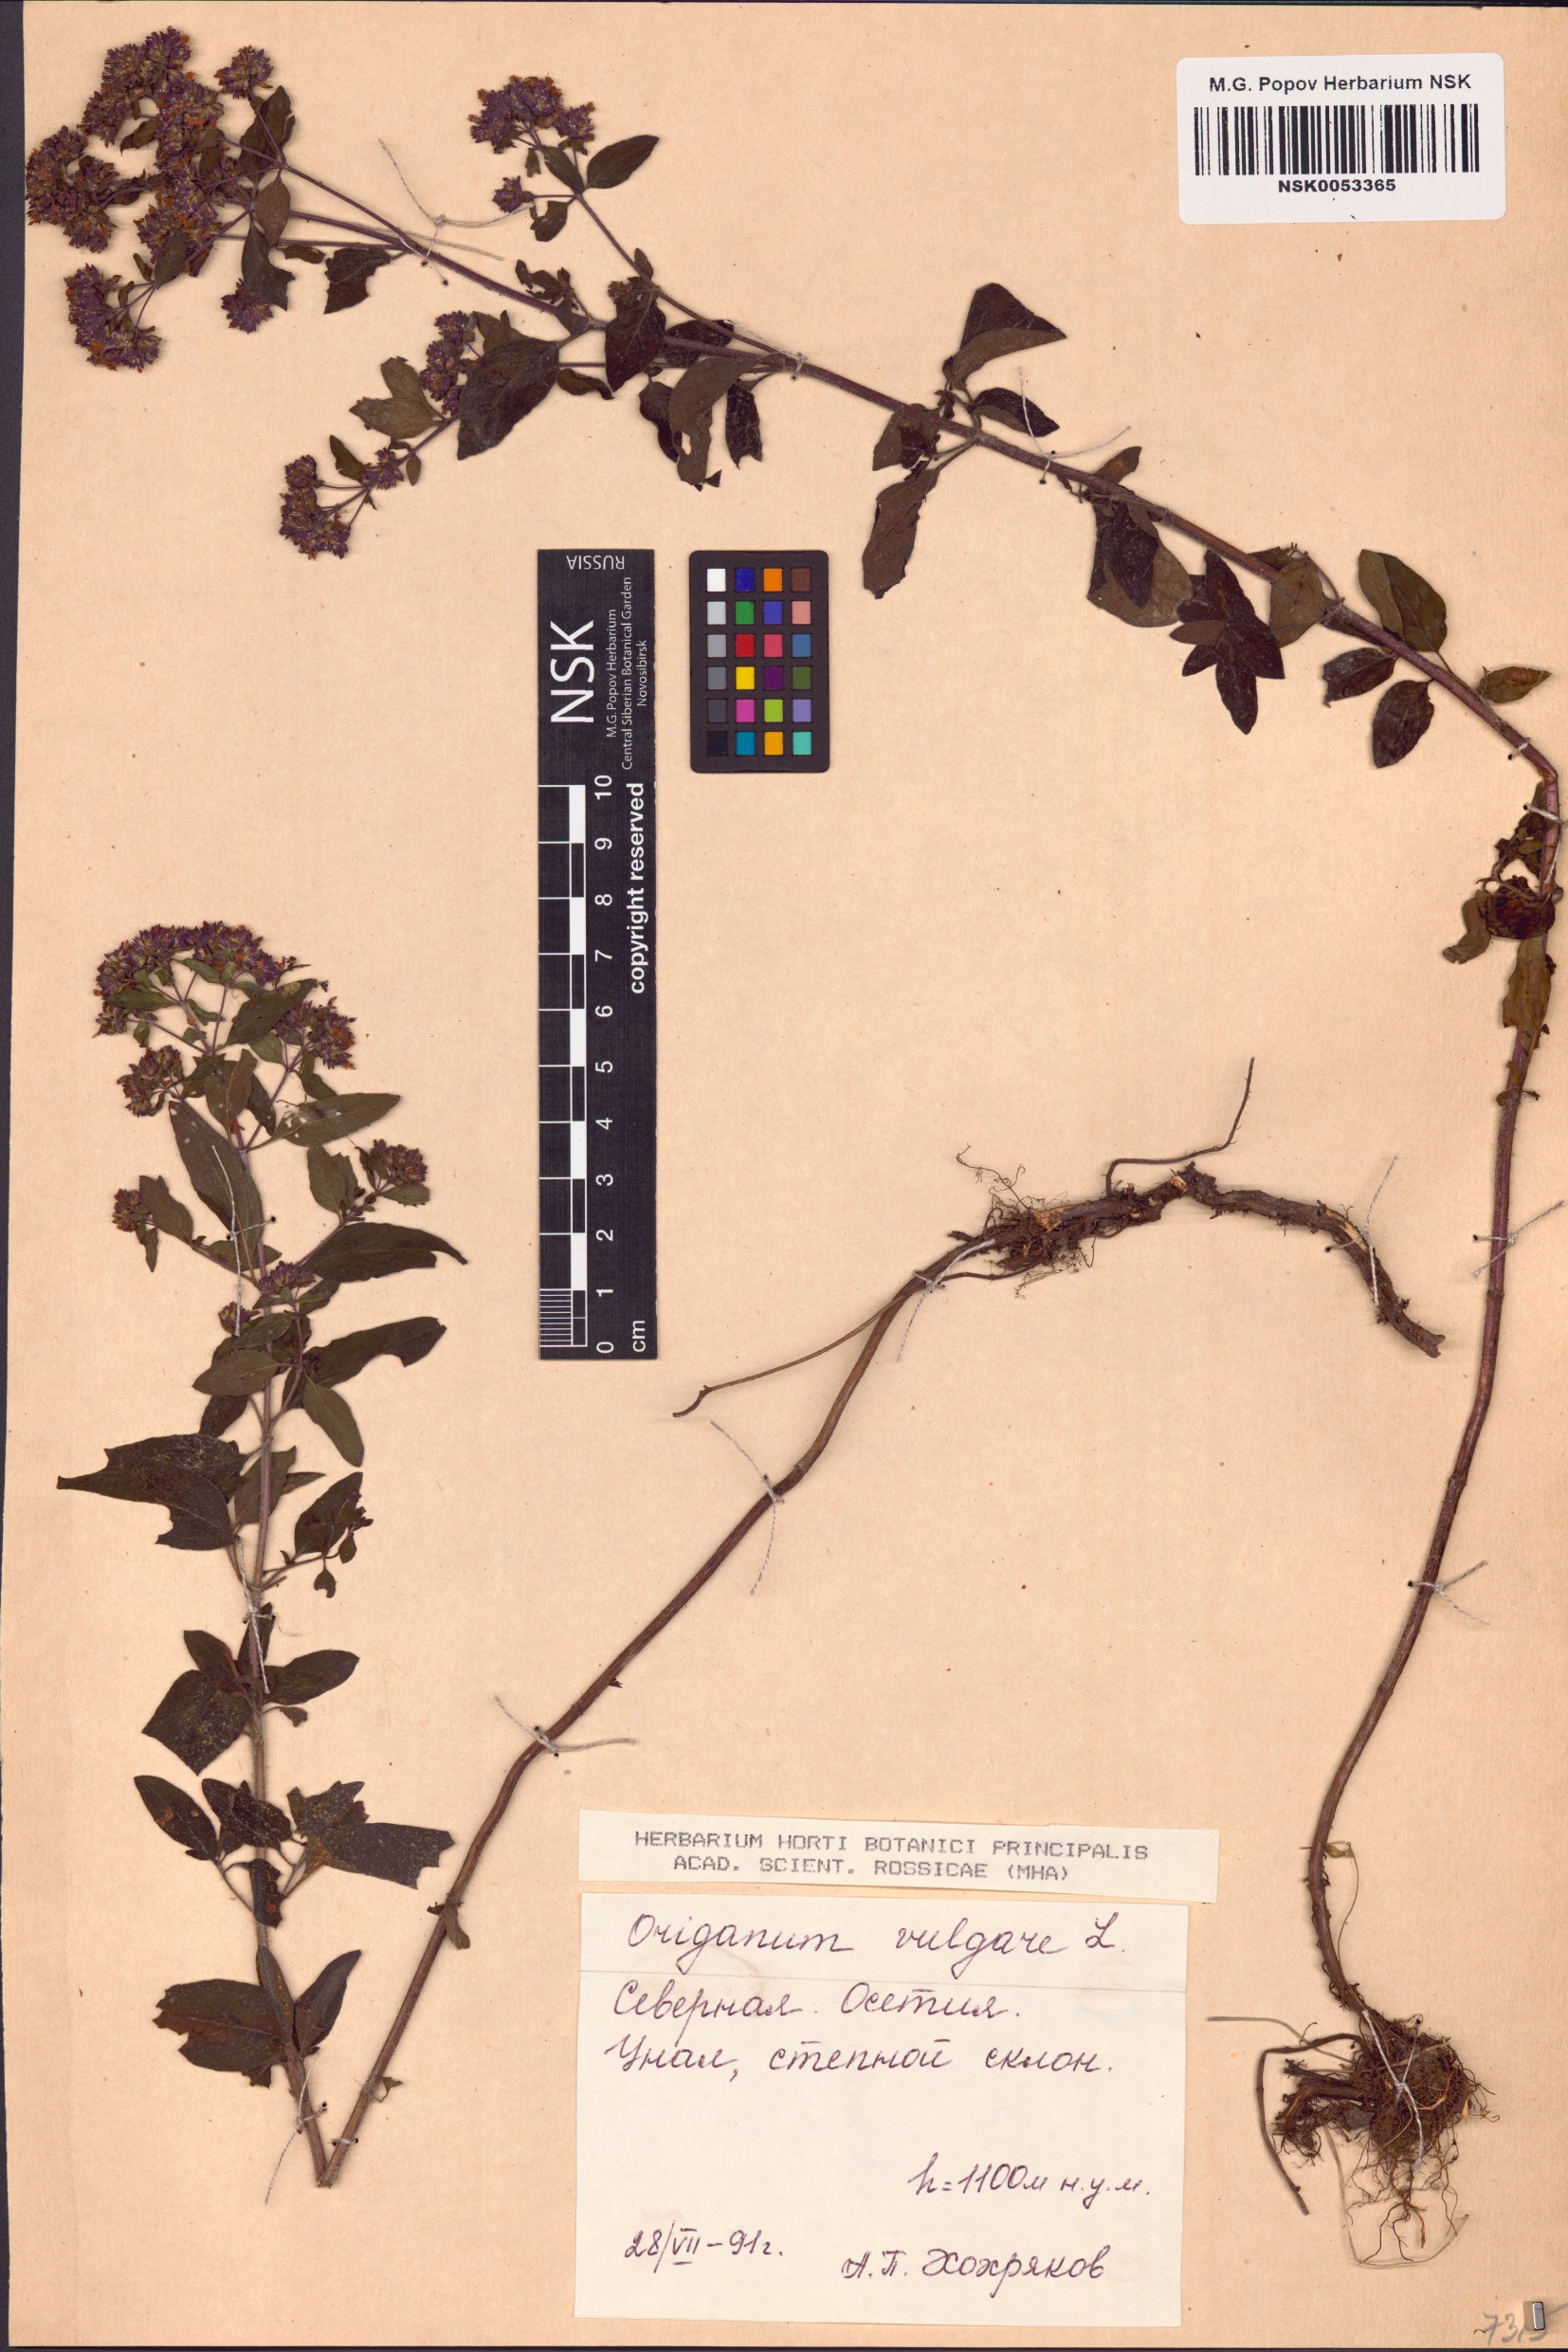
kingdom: Plantae
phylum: Tracheophyta
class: Magnoliopsida
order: Lamiales
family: Lamiaceae
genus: Origanum
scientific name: Origanum vulgare
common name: Wild marjoram
